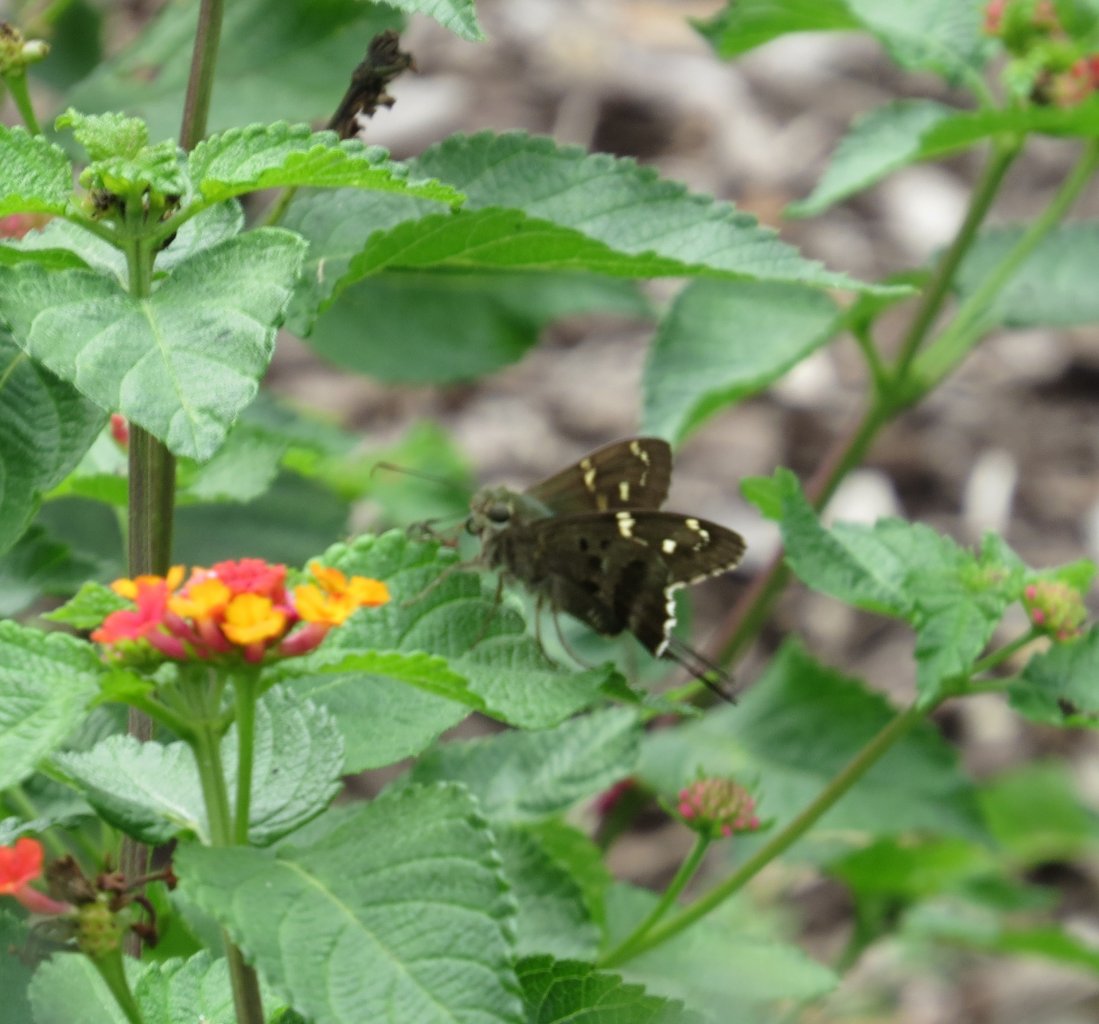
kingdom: Animalia
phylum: Arthropoda
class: Insecta
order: Lepidoptera
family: Hesperiidae
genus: Urbanus
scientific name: Urbanus proteus
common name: Long-tailed Skipper
